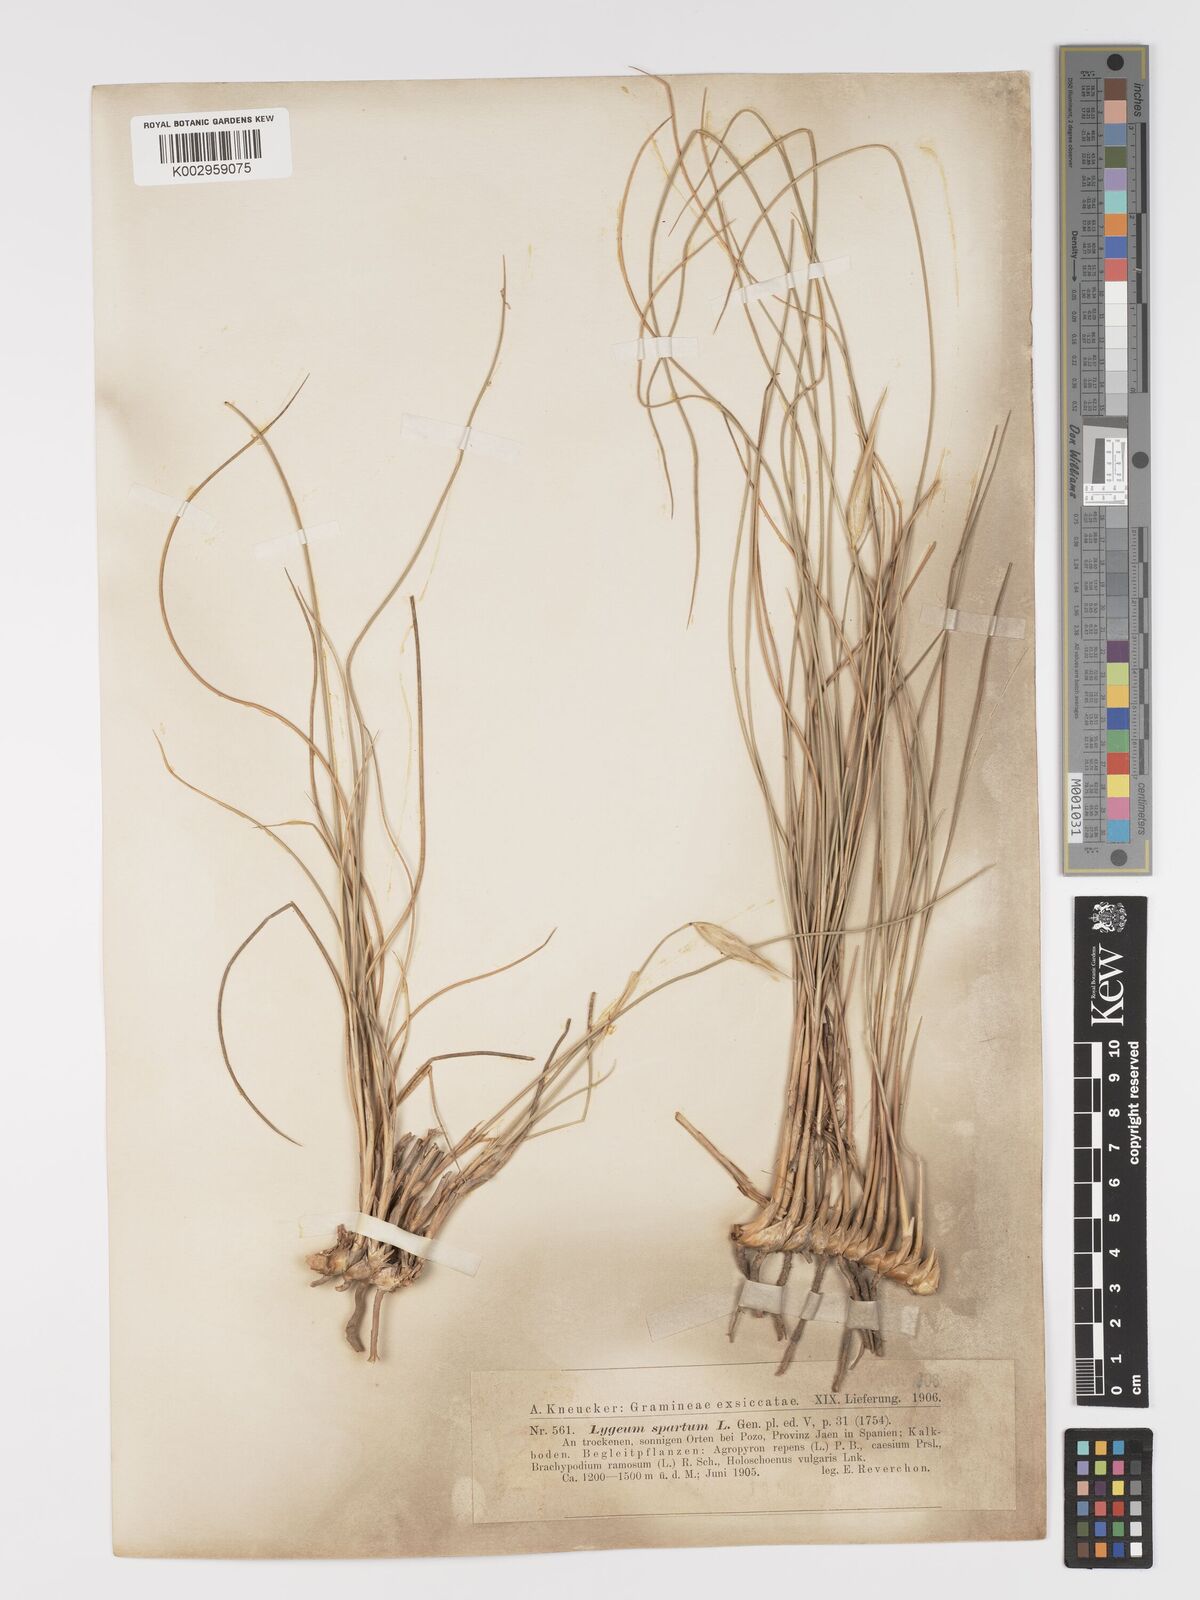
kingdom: Plantae
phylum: Tracheophyta
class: Liliopsida
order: Poales
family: Poaceae
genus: Lygeum
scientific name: Lygeum spartum
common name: Albardine
